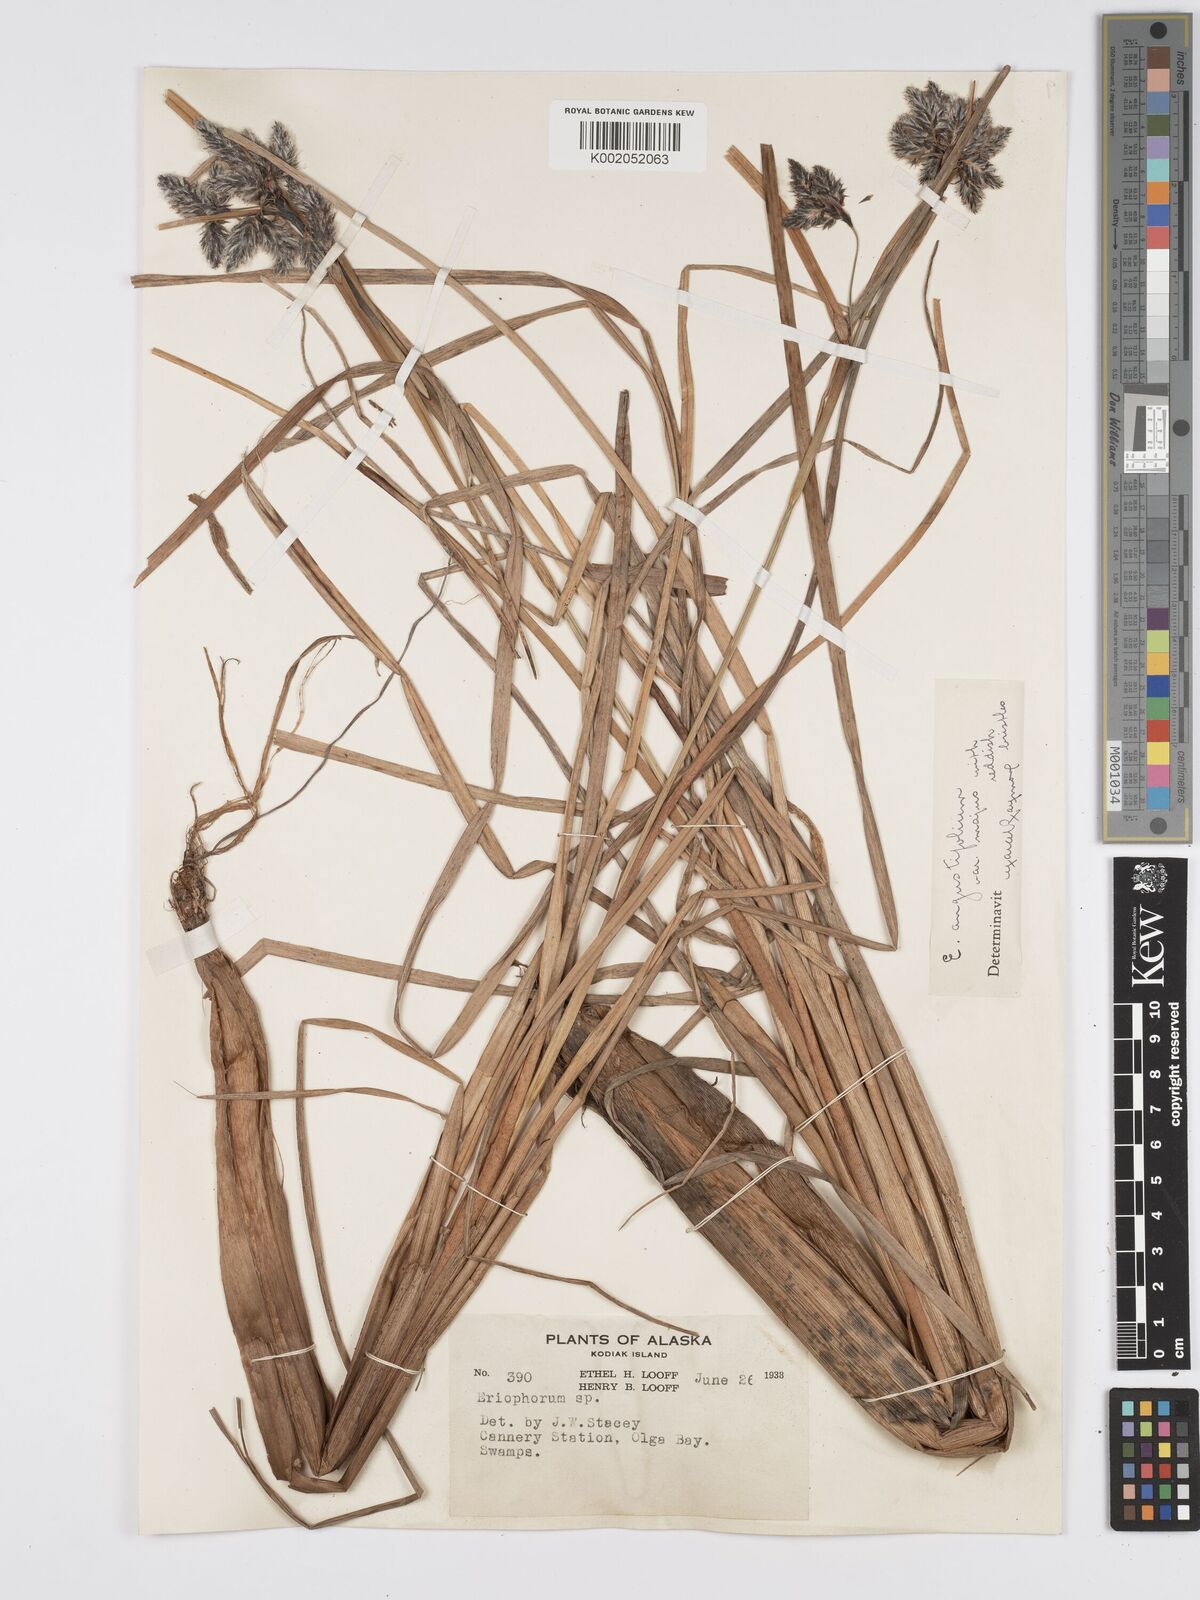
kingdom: Plantae
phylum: Tracheophyta
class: Liliopsida
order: Poales
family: Cyperaceae
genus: Eriophorum
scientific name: Eriophorum
